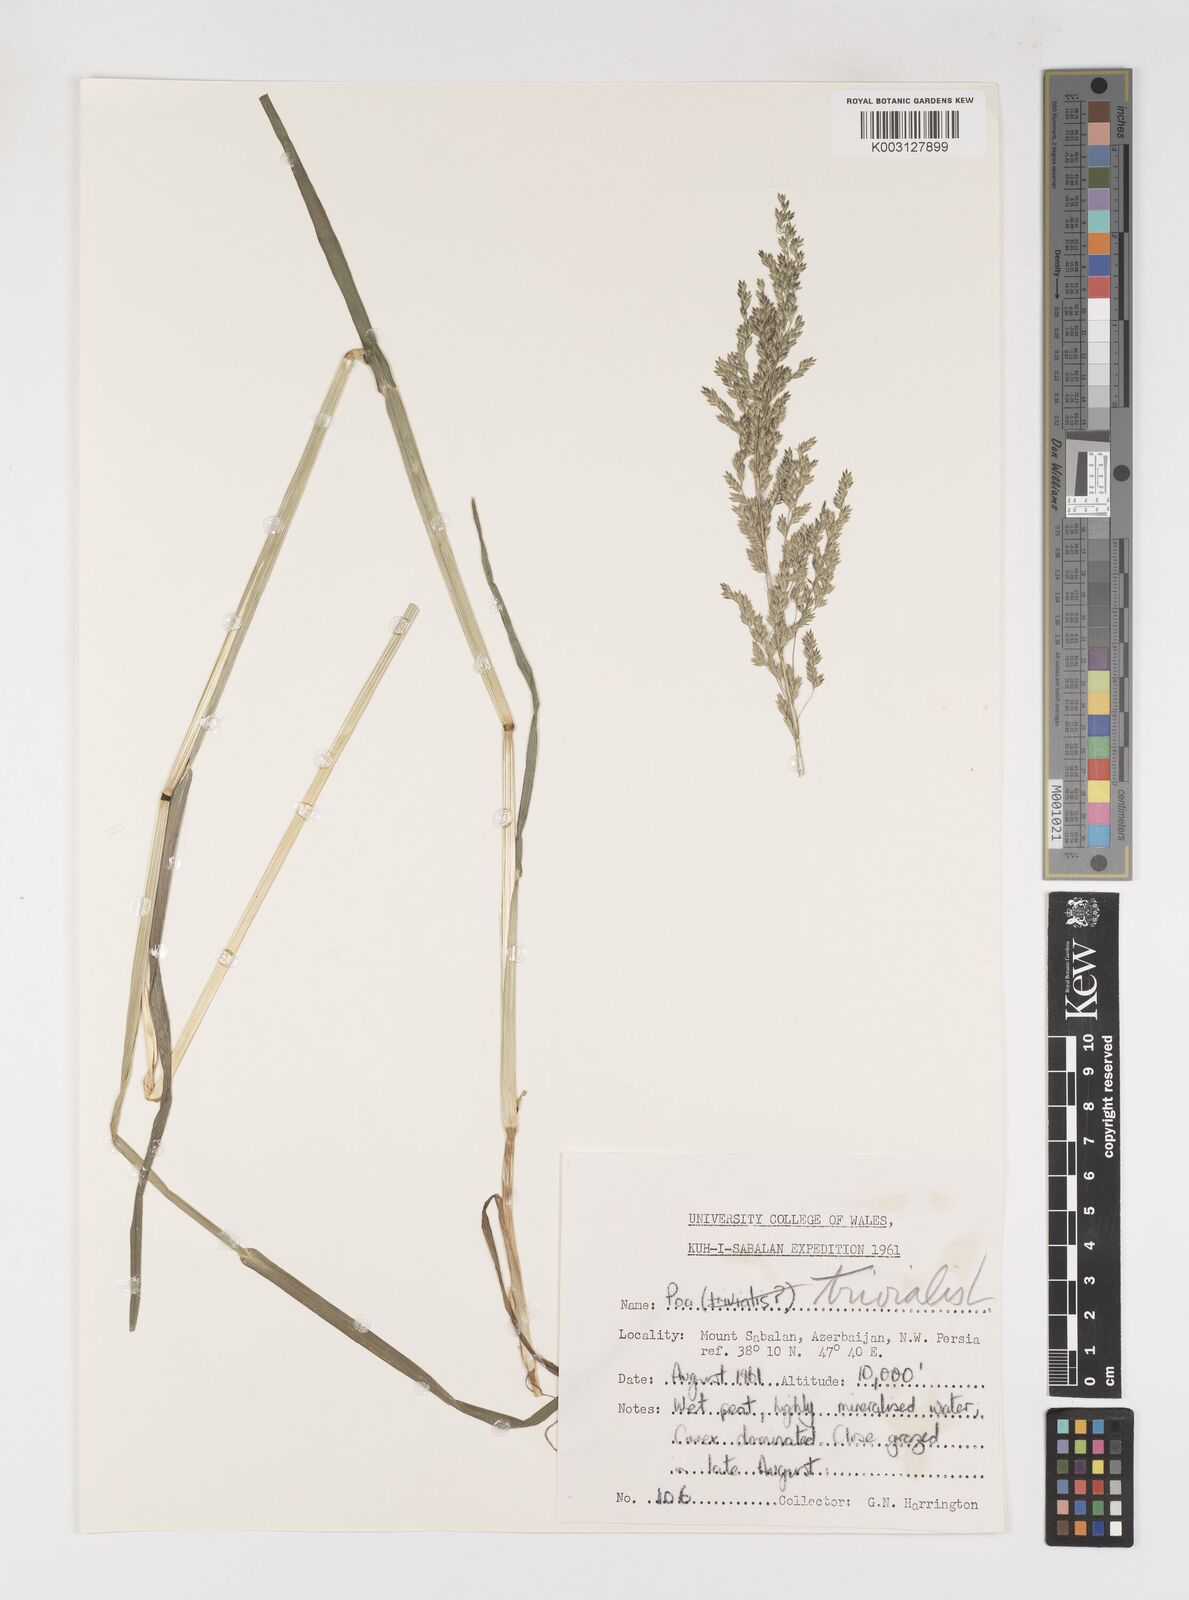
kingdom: Plantae
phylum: Tracheophyta
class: Liliopsida
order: Poales
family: Poaceae
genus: Poa
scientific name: Poa trivialis
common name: Rough bluegrass
